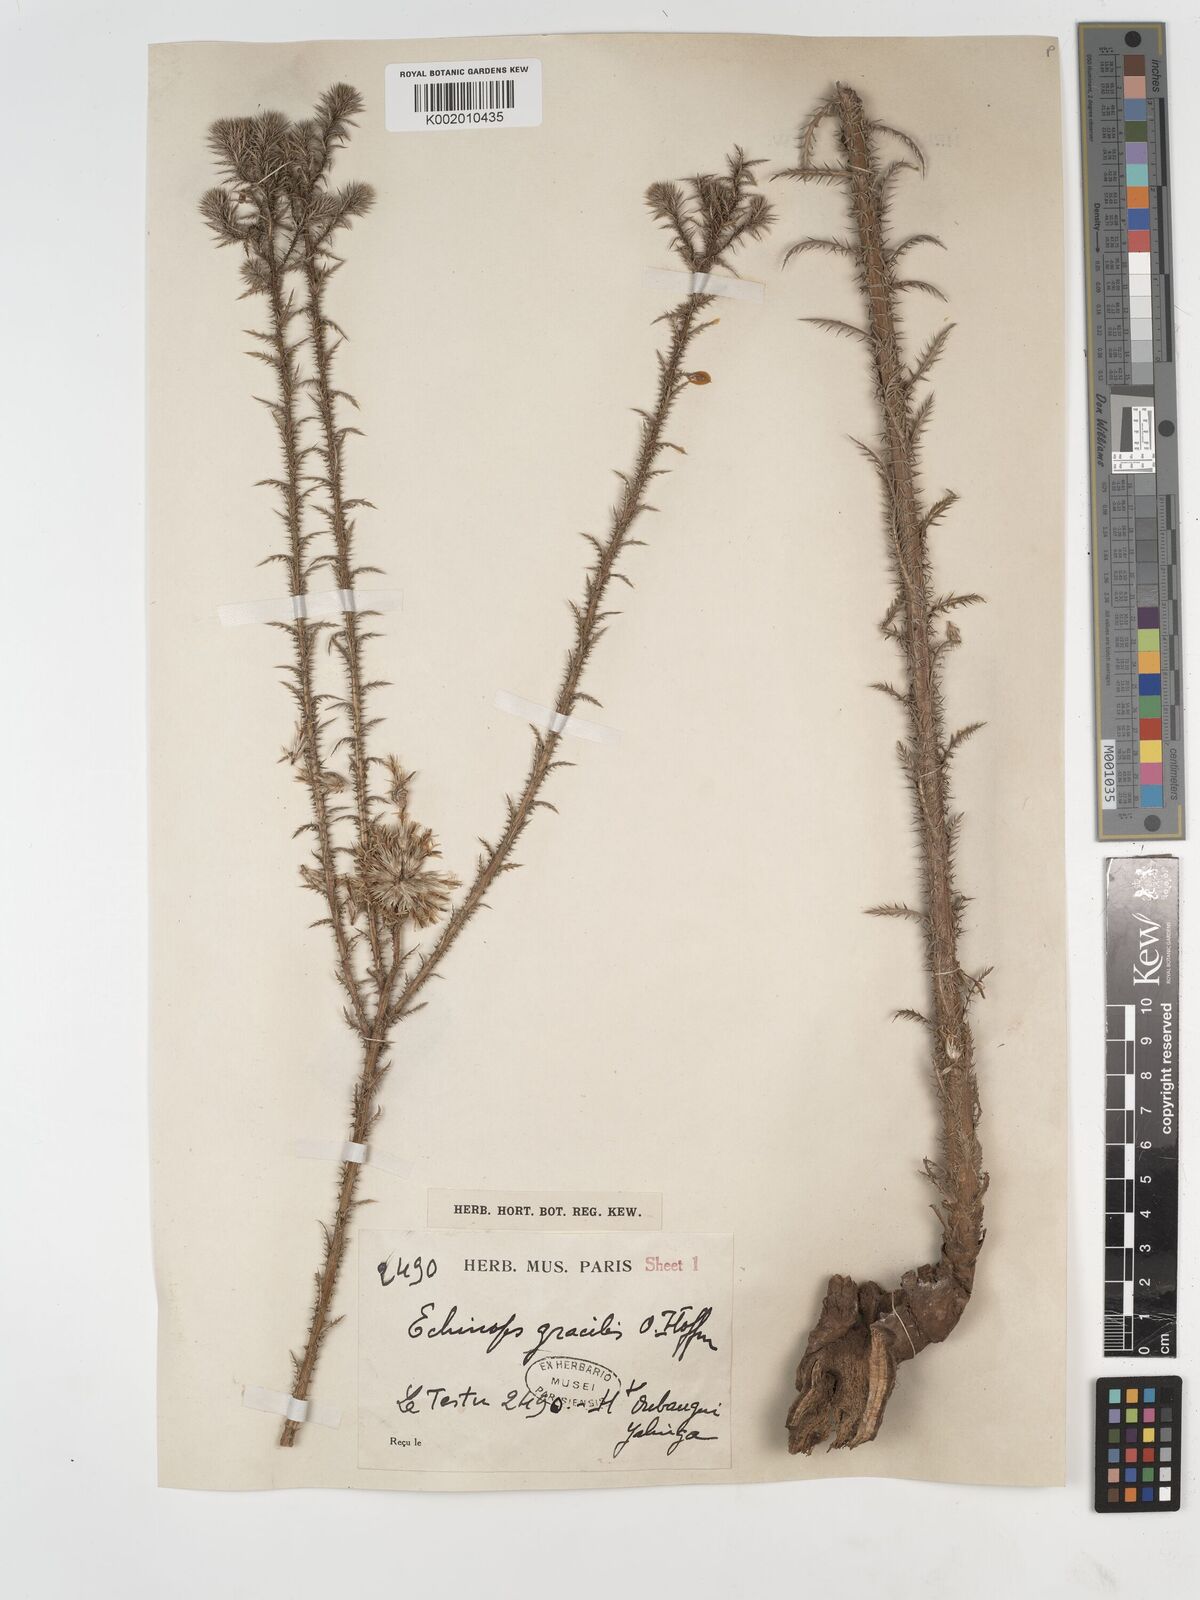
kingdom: Plantae
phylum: Tracheophyta
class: Magnoliopsida
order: Asterales
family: Asteraceae
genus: Echinops
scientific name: Echinops gracilis
